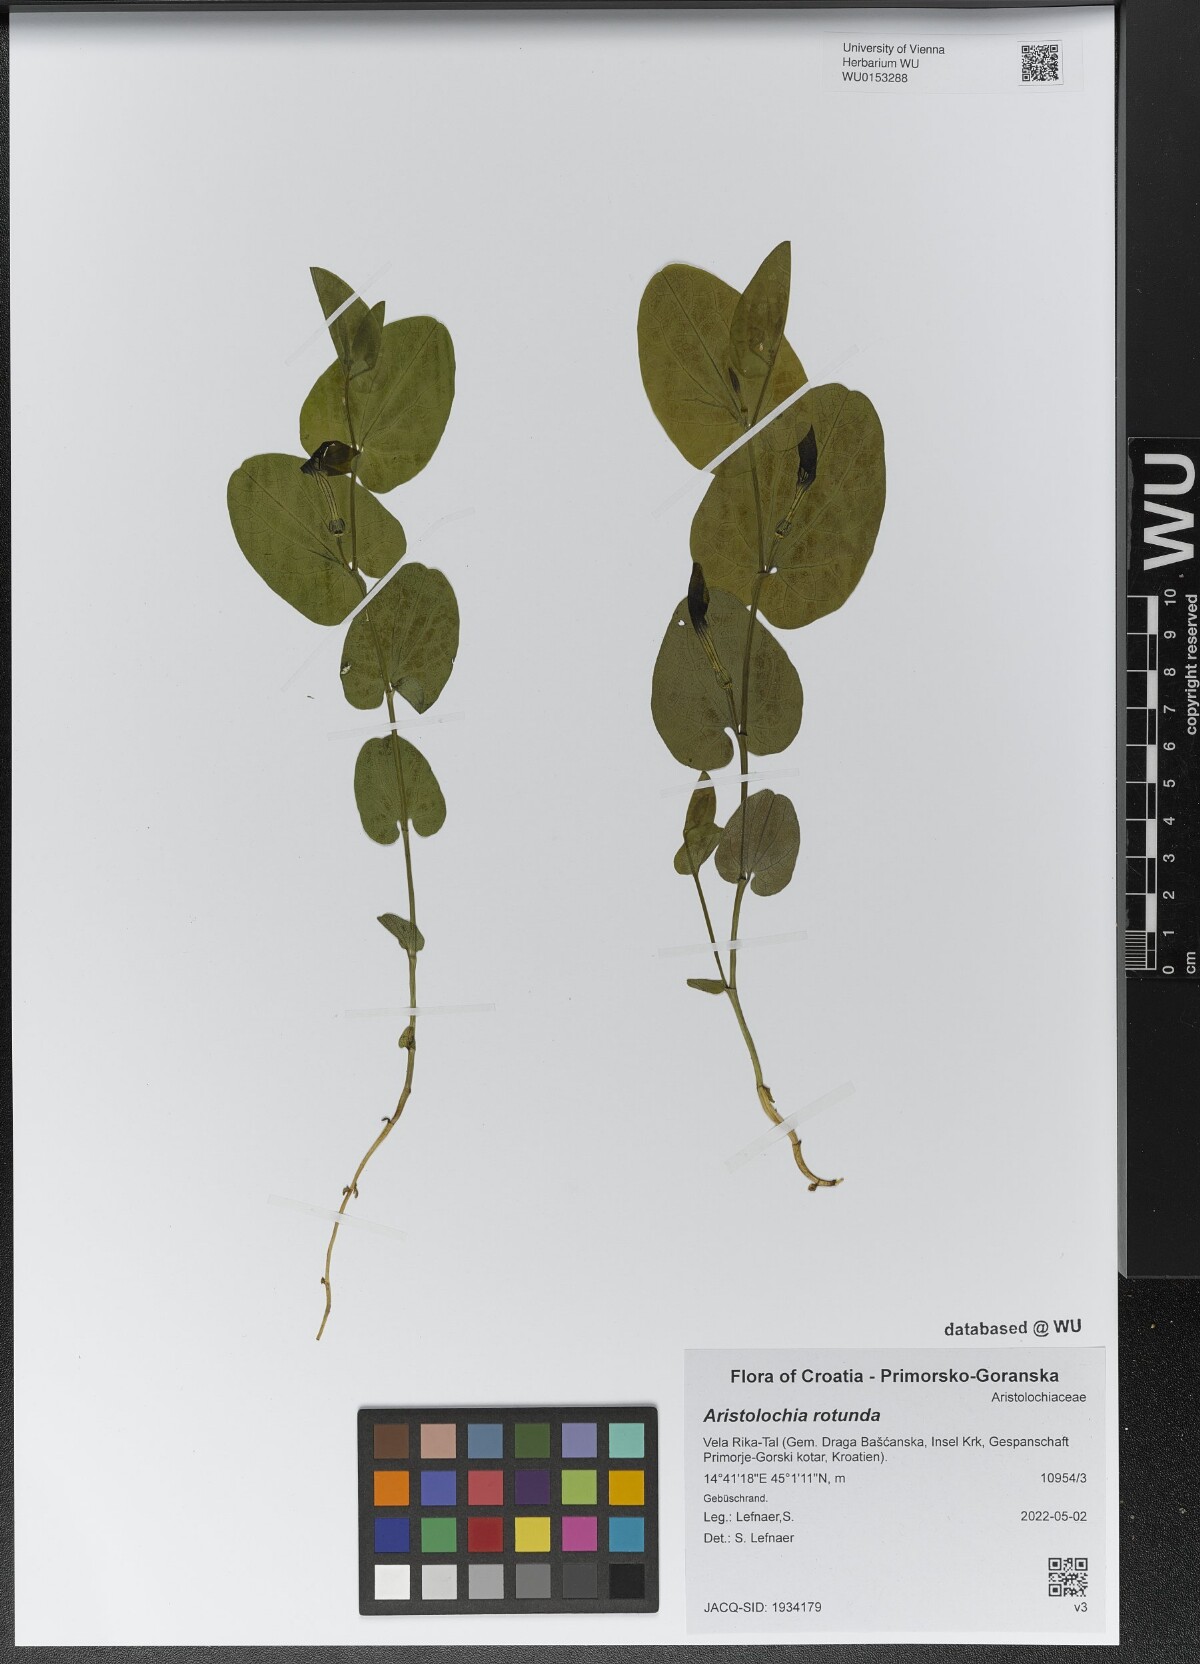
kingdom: Plantae
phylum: Tracheophyta
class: Magnoliopsida
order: Piperales
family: Aristolochiaceae
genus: Aristolochia
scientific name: Aristolochia rotunda
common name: Smearwort
